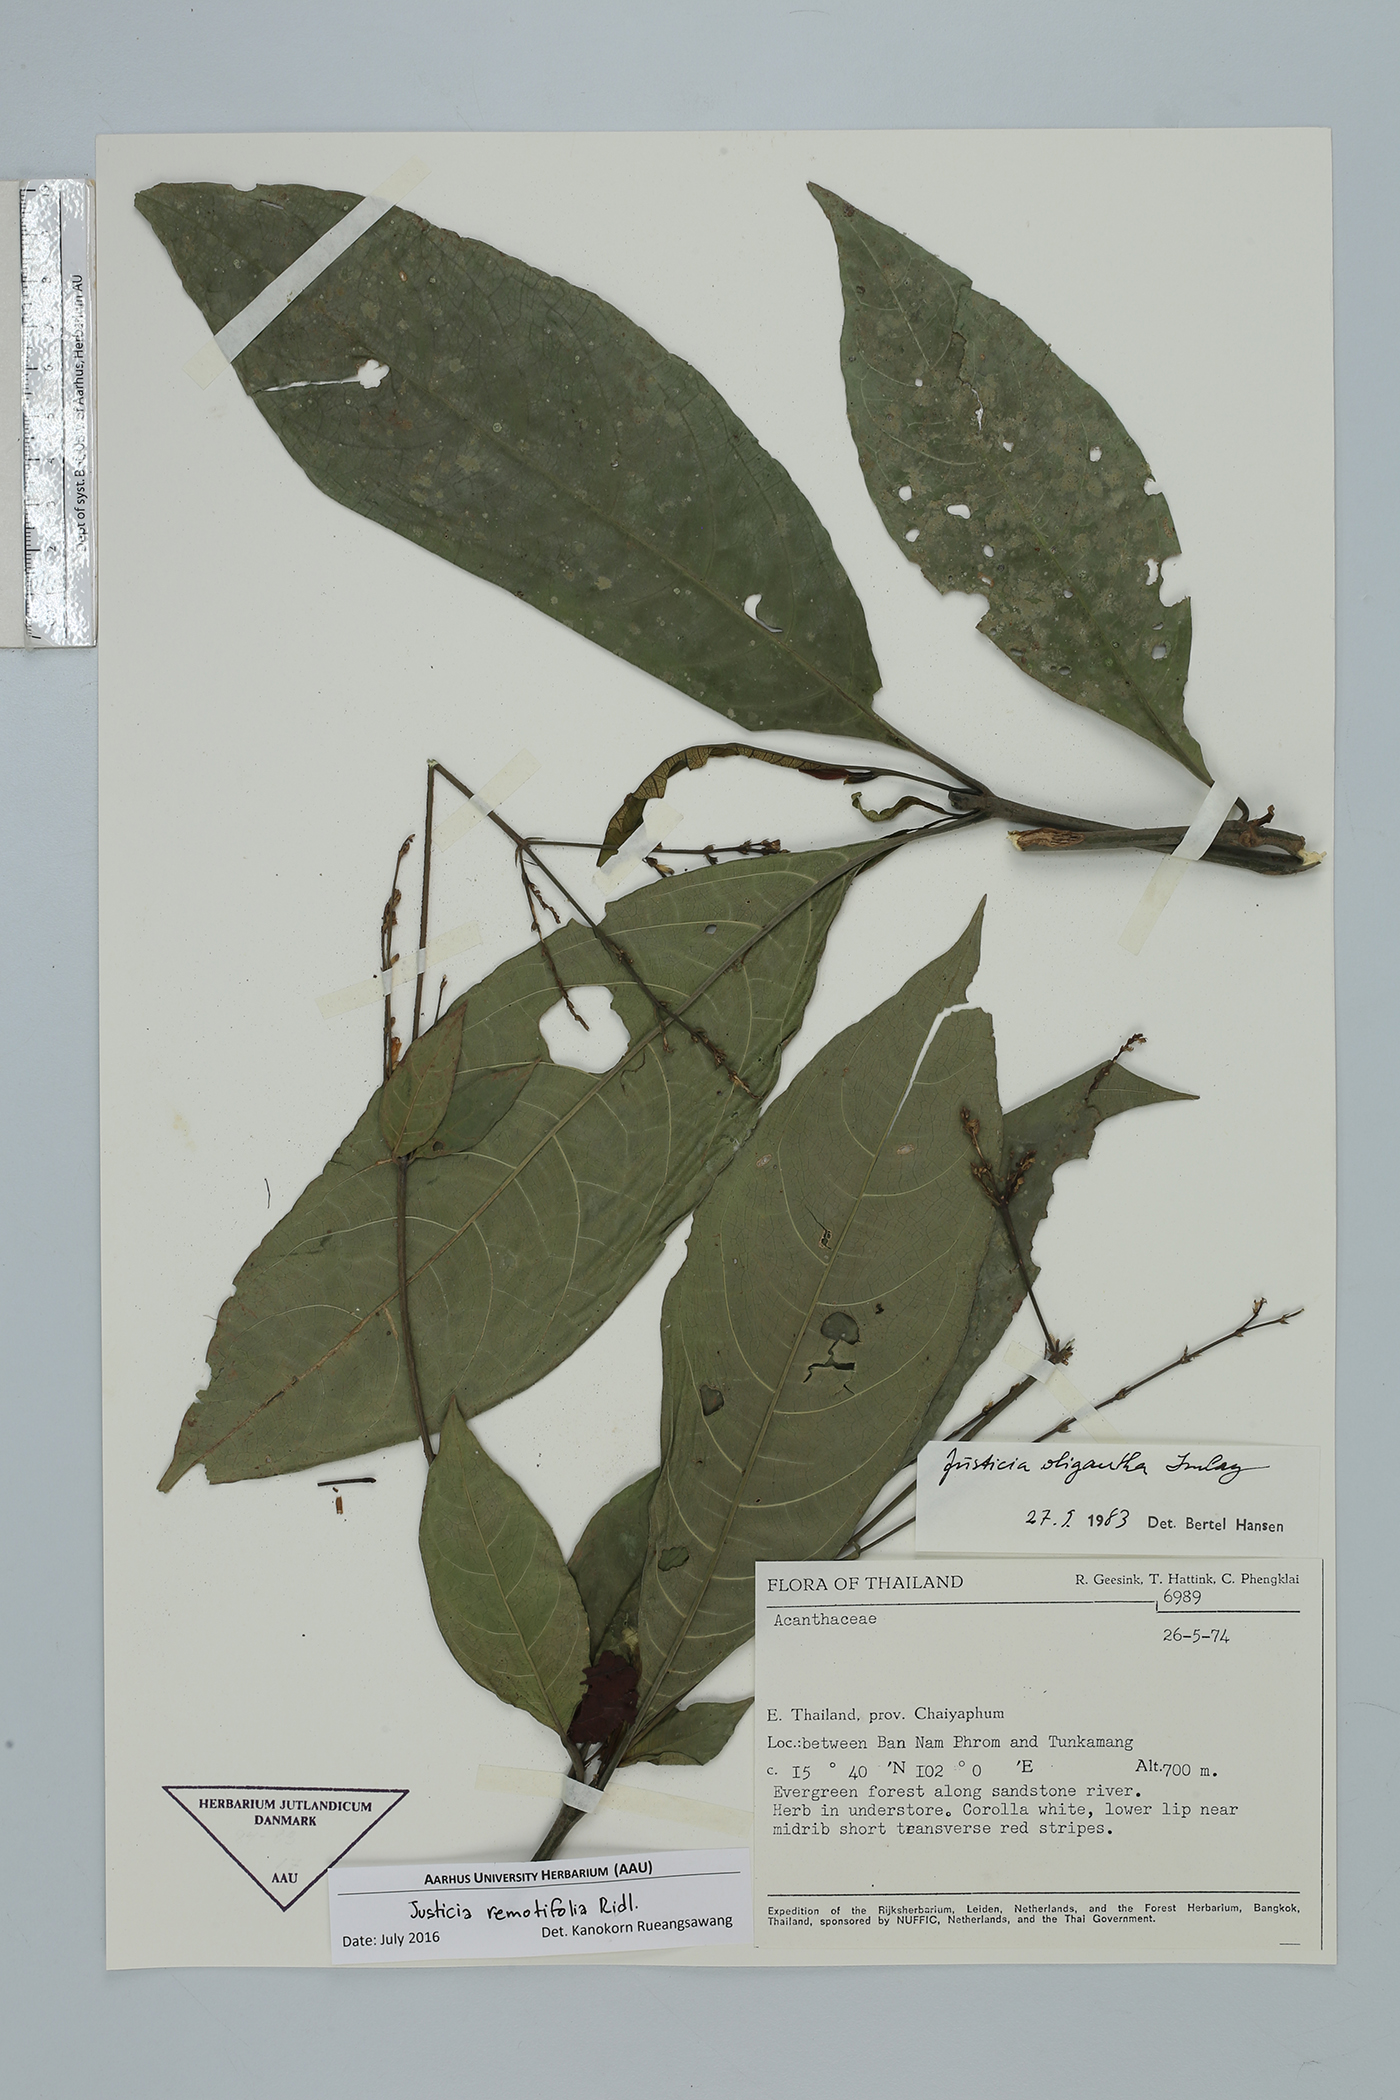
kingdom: Plantae
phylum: Tracheophyta
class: Magnoliopsida
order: Lamiales
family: Acanthaceae
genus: Justicia
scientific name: Justicia remotifolia
